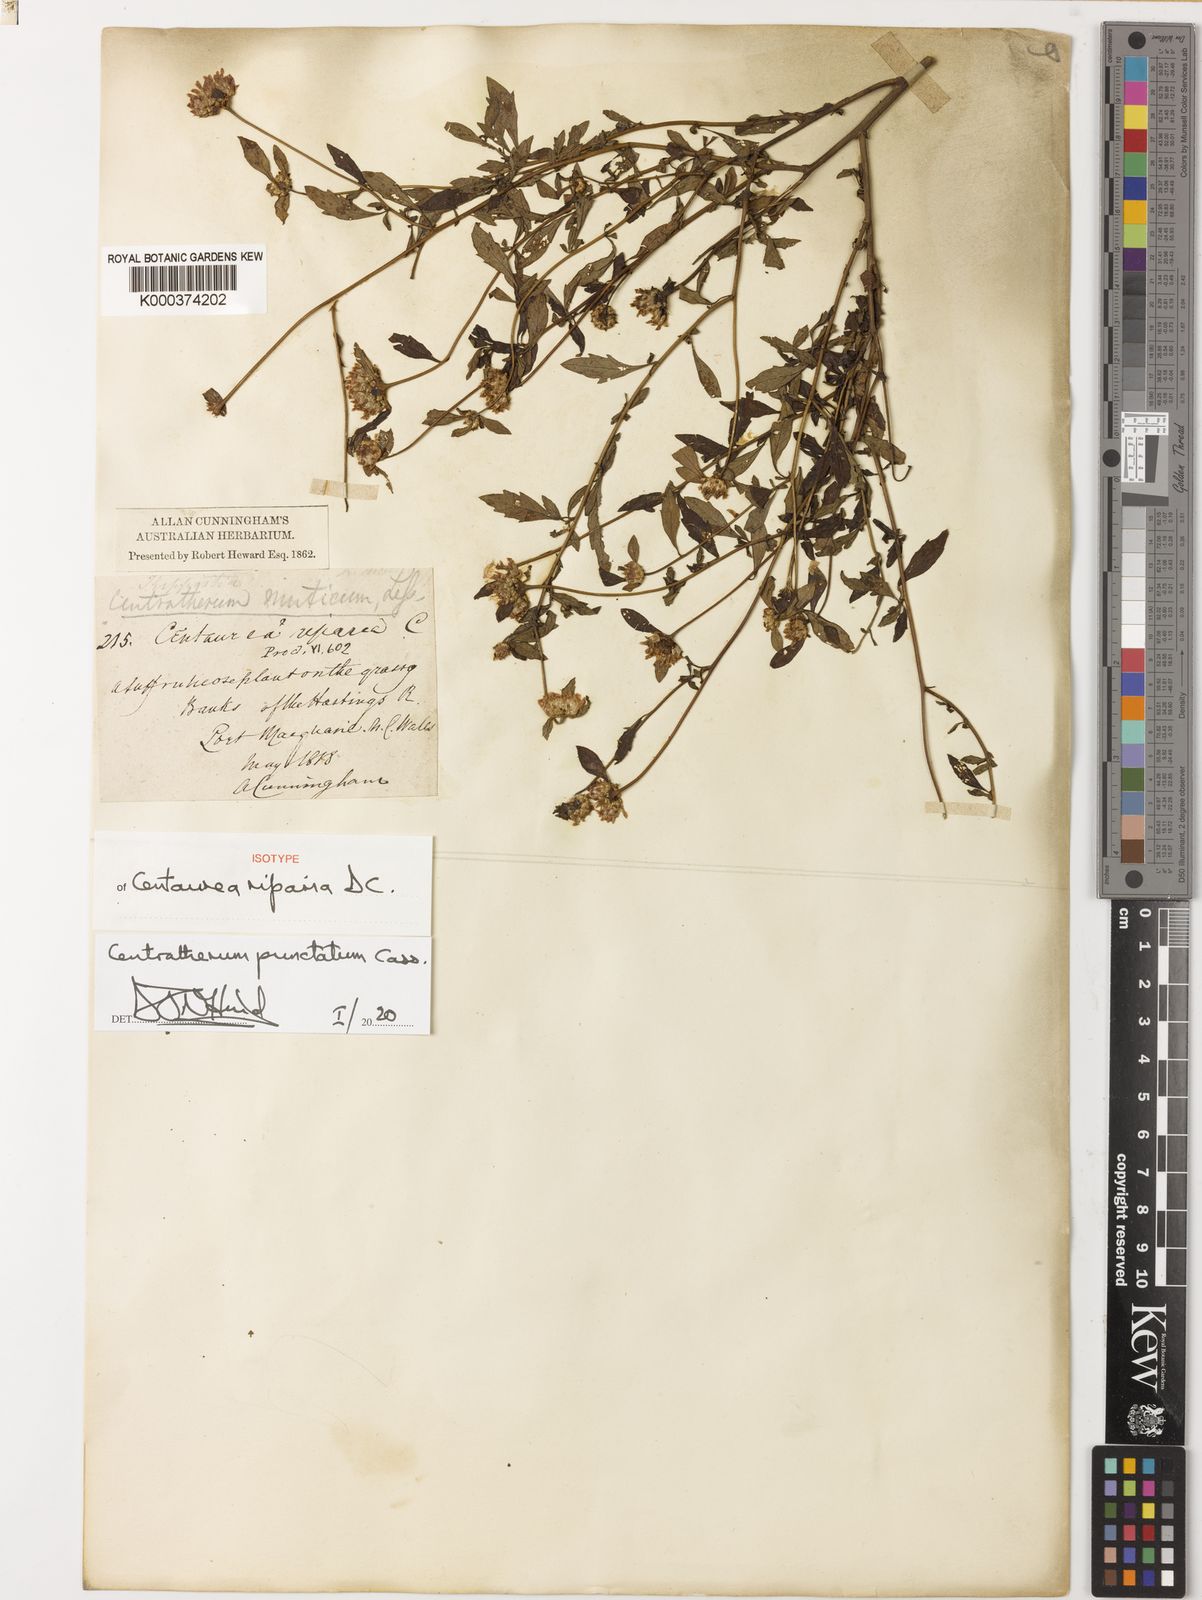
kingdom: Plantae
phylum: Tracheophyta
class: Magnoliopsida
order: Asterales
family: Asteraceae
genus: Centratherum
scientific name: Centratherum punctatum
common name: Larkdaisy
